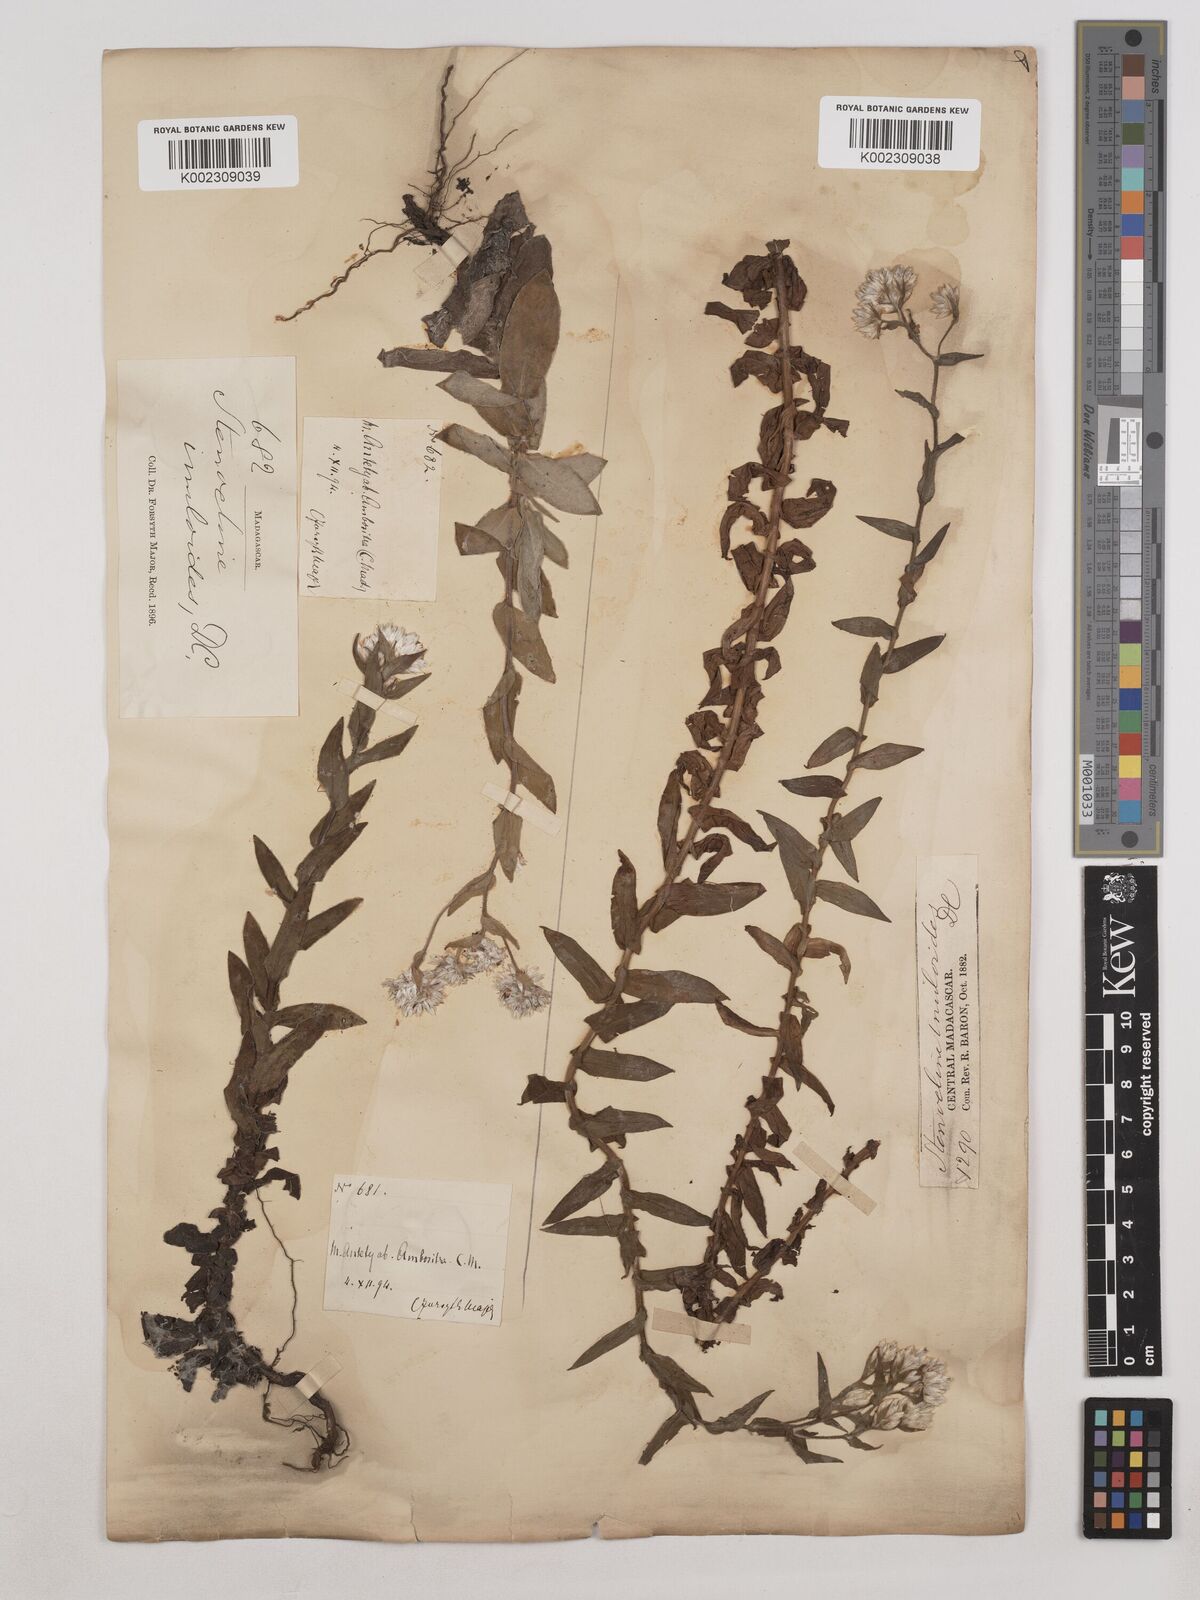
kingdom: Plantae
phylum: Tracheophyta
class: Magnoliopsida
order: Asterales
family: Asteraceae
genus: Stenocline
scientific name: Stenocline inuloides
